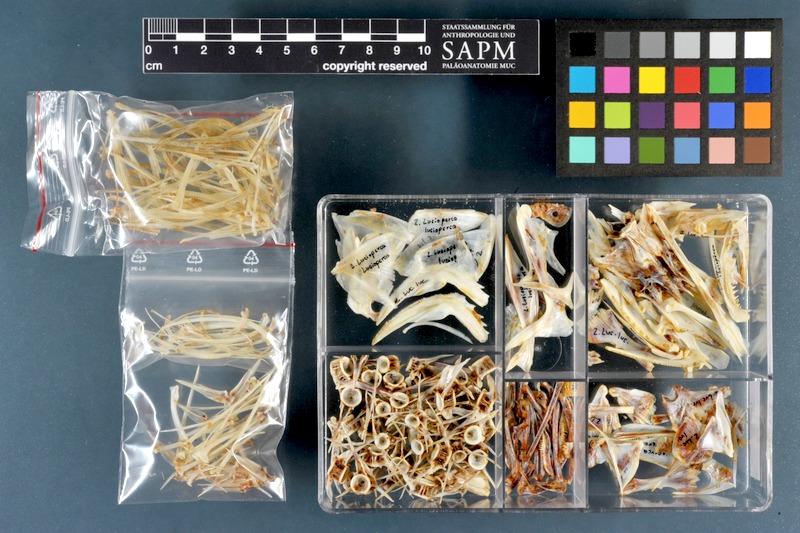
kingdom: Animalia
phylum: Chordata
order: Perciformes
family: Percidae
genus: Sander
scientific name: Sander lucioperca
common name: Pikeperch
